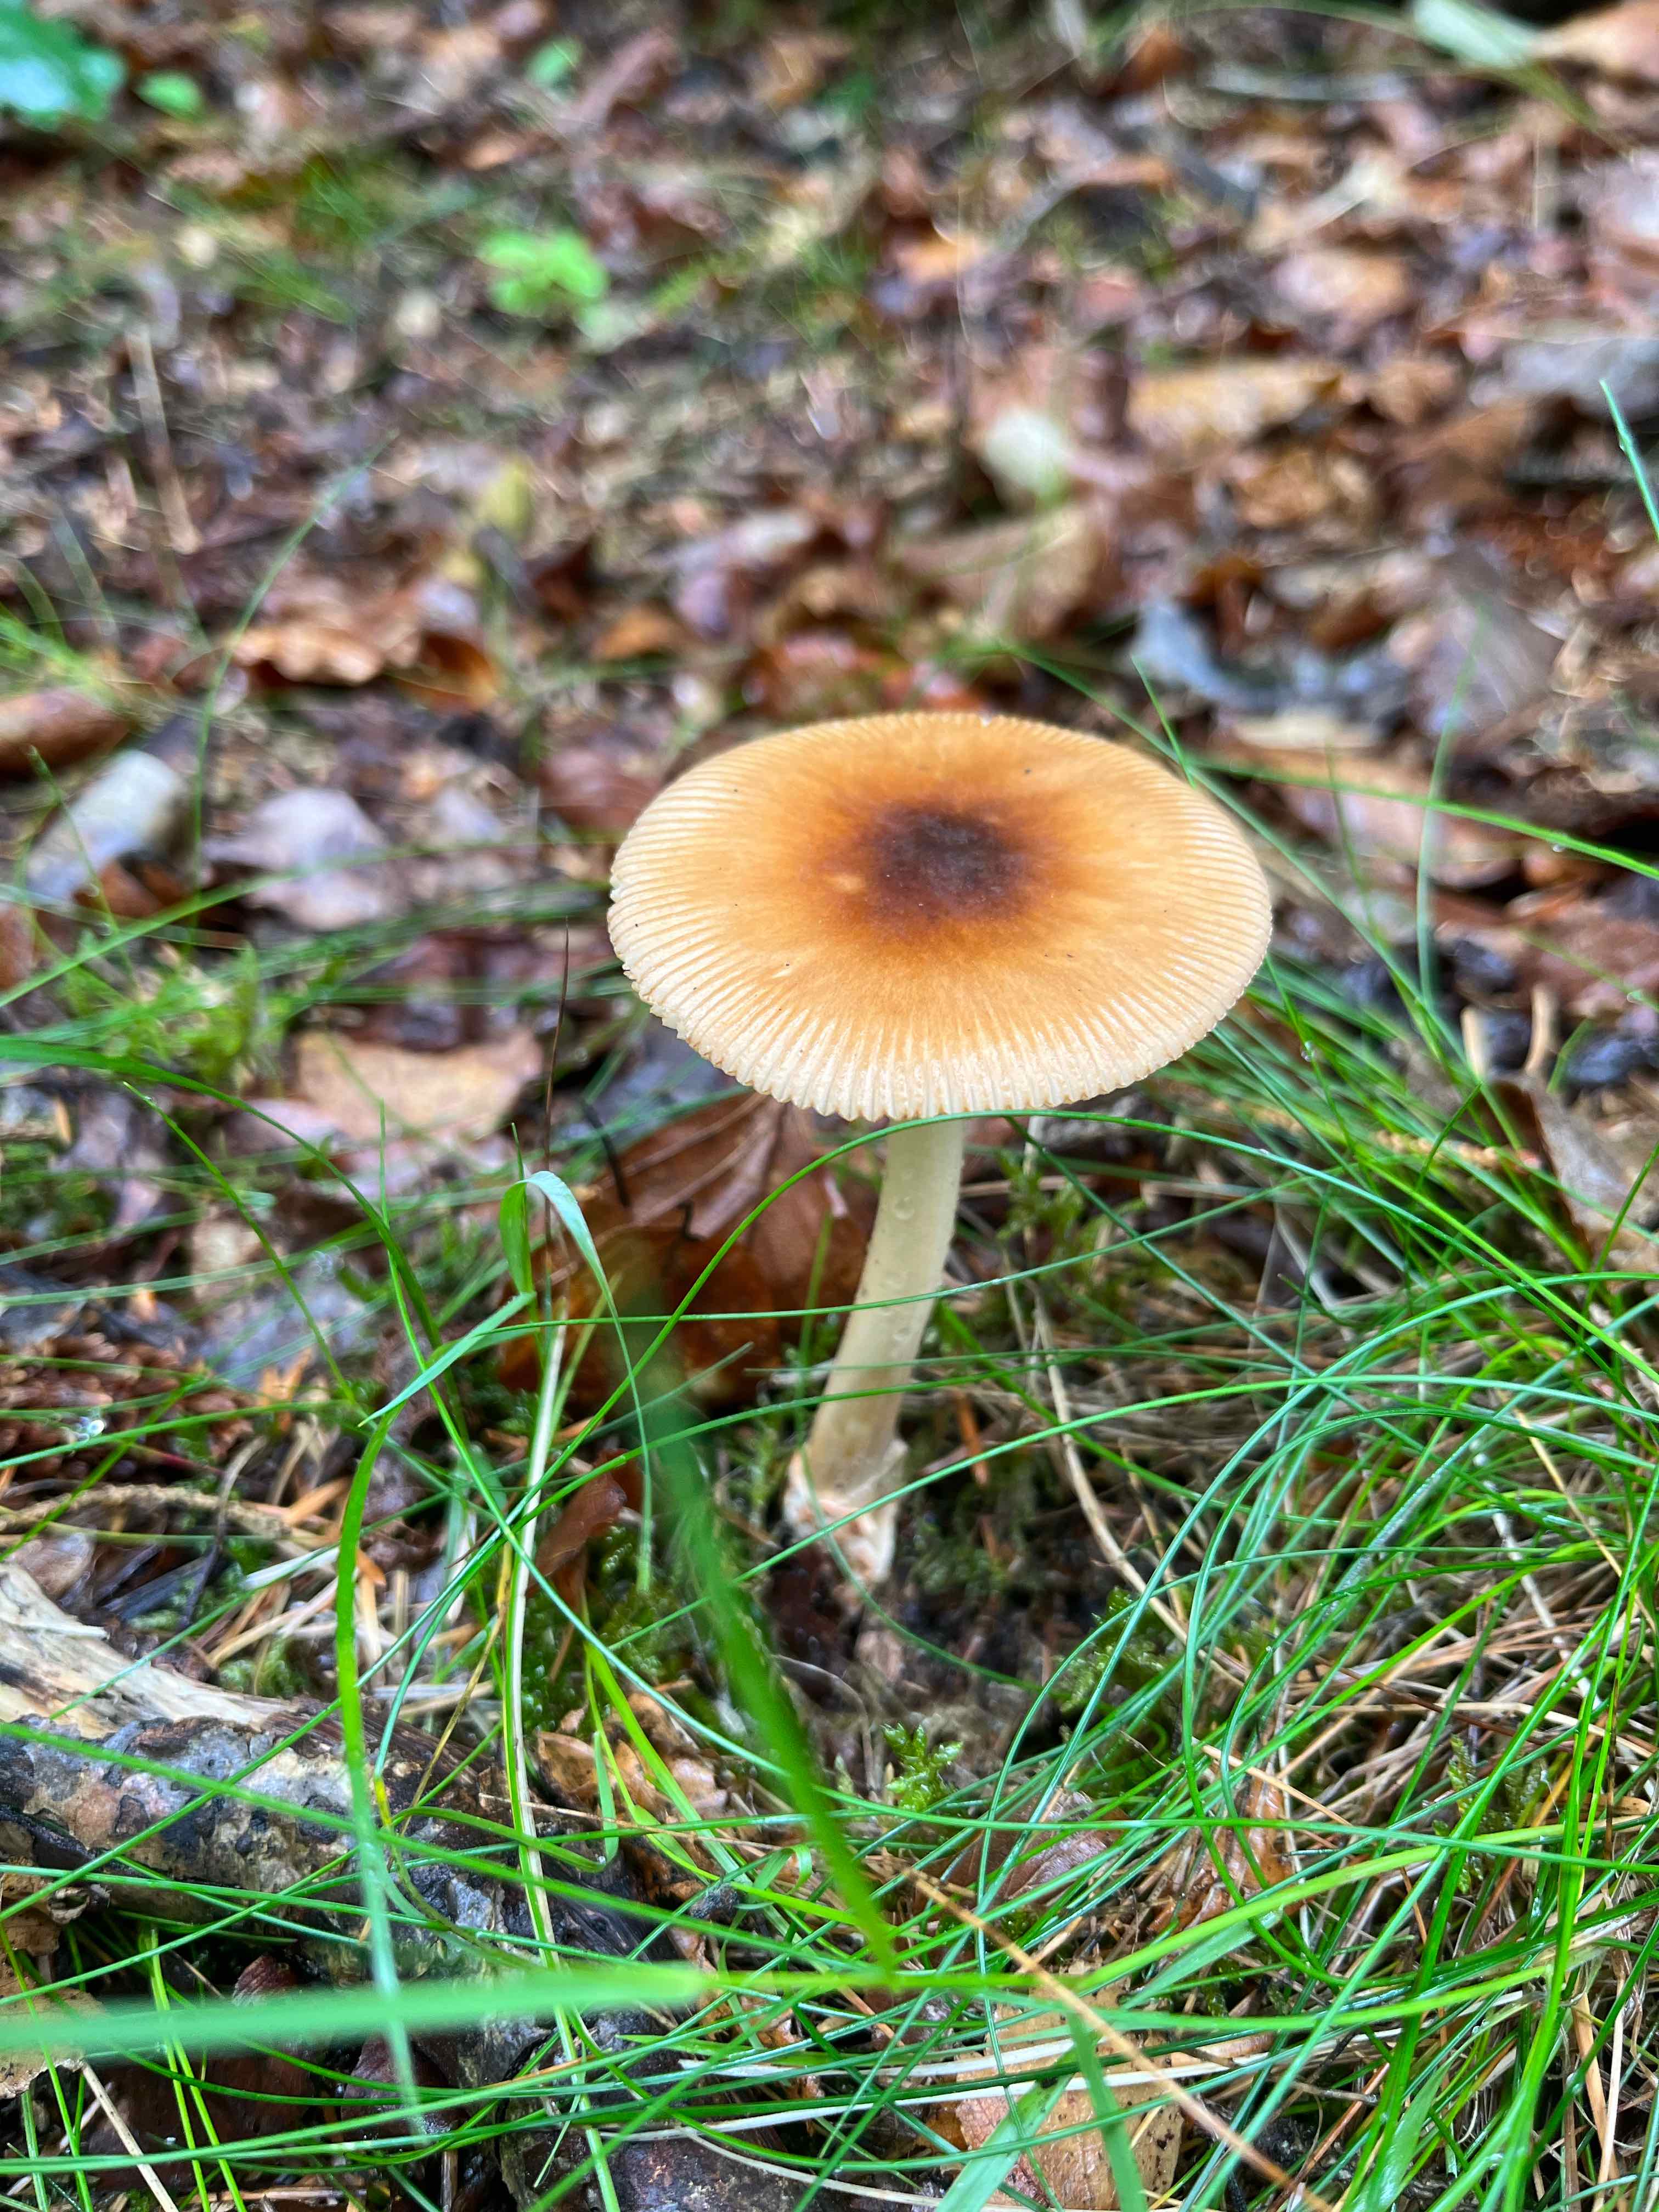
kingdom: Fungi
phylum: Basidiomycota
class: Agaricomycetes
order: Agaricales
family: Amanitaceae
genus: Amanita
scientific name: Amanita fulva
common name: brun kam-fluesvamp
